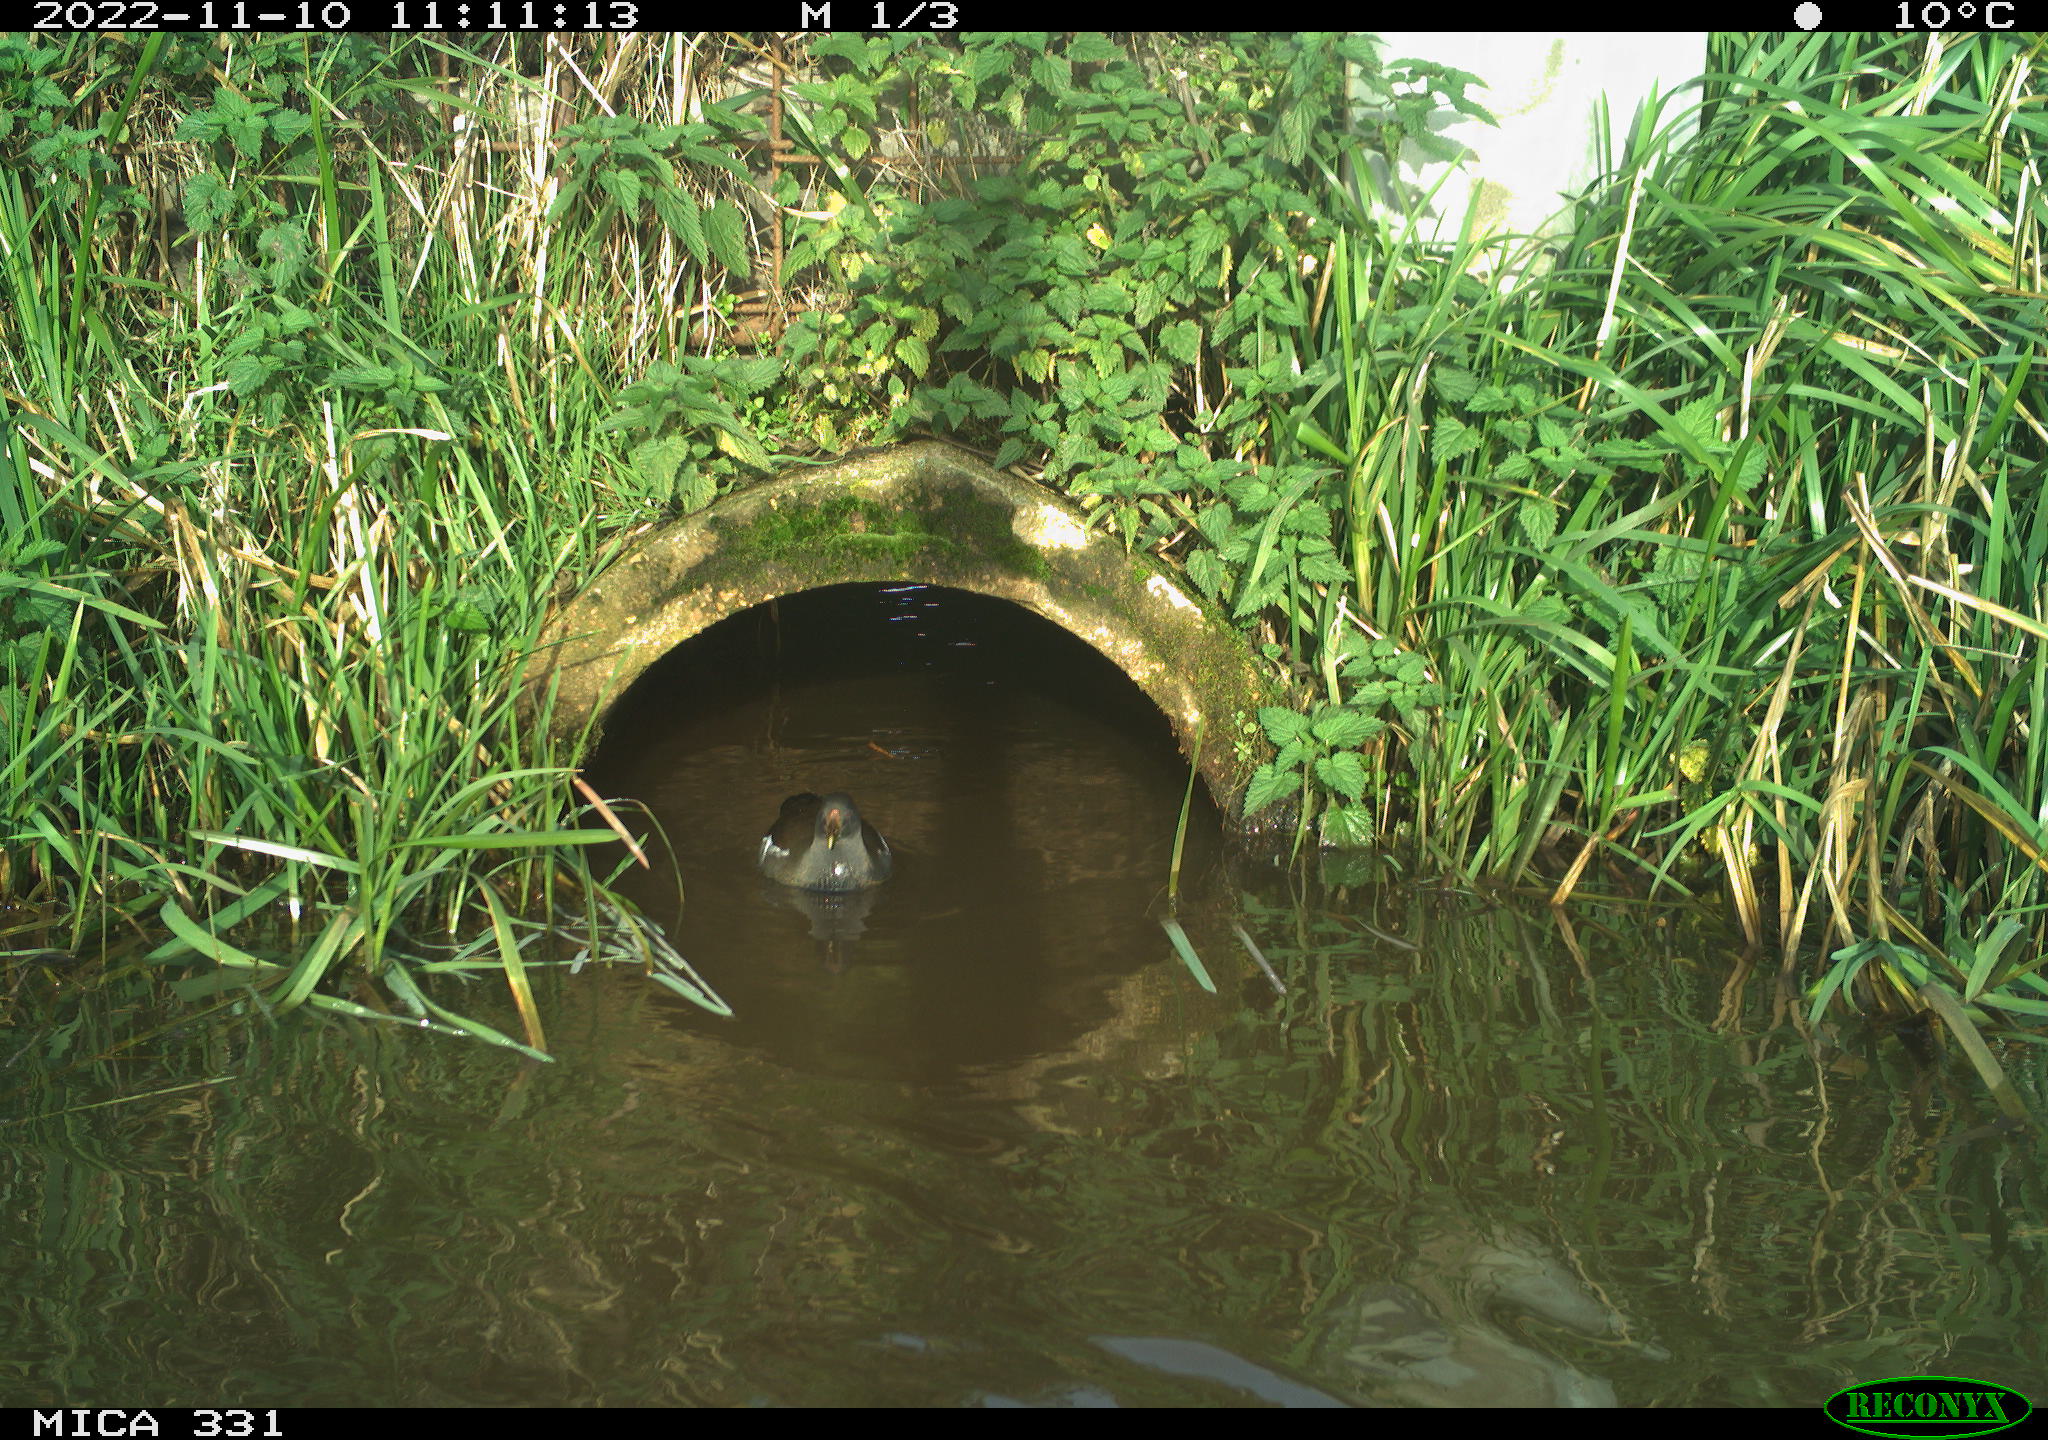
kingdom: Animalia
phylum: Chordata
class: Aves
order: Gruiformes
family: Rallidae
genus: Gallinula
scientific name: Gallinula chloropus
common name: Common moorhen
